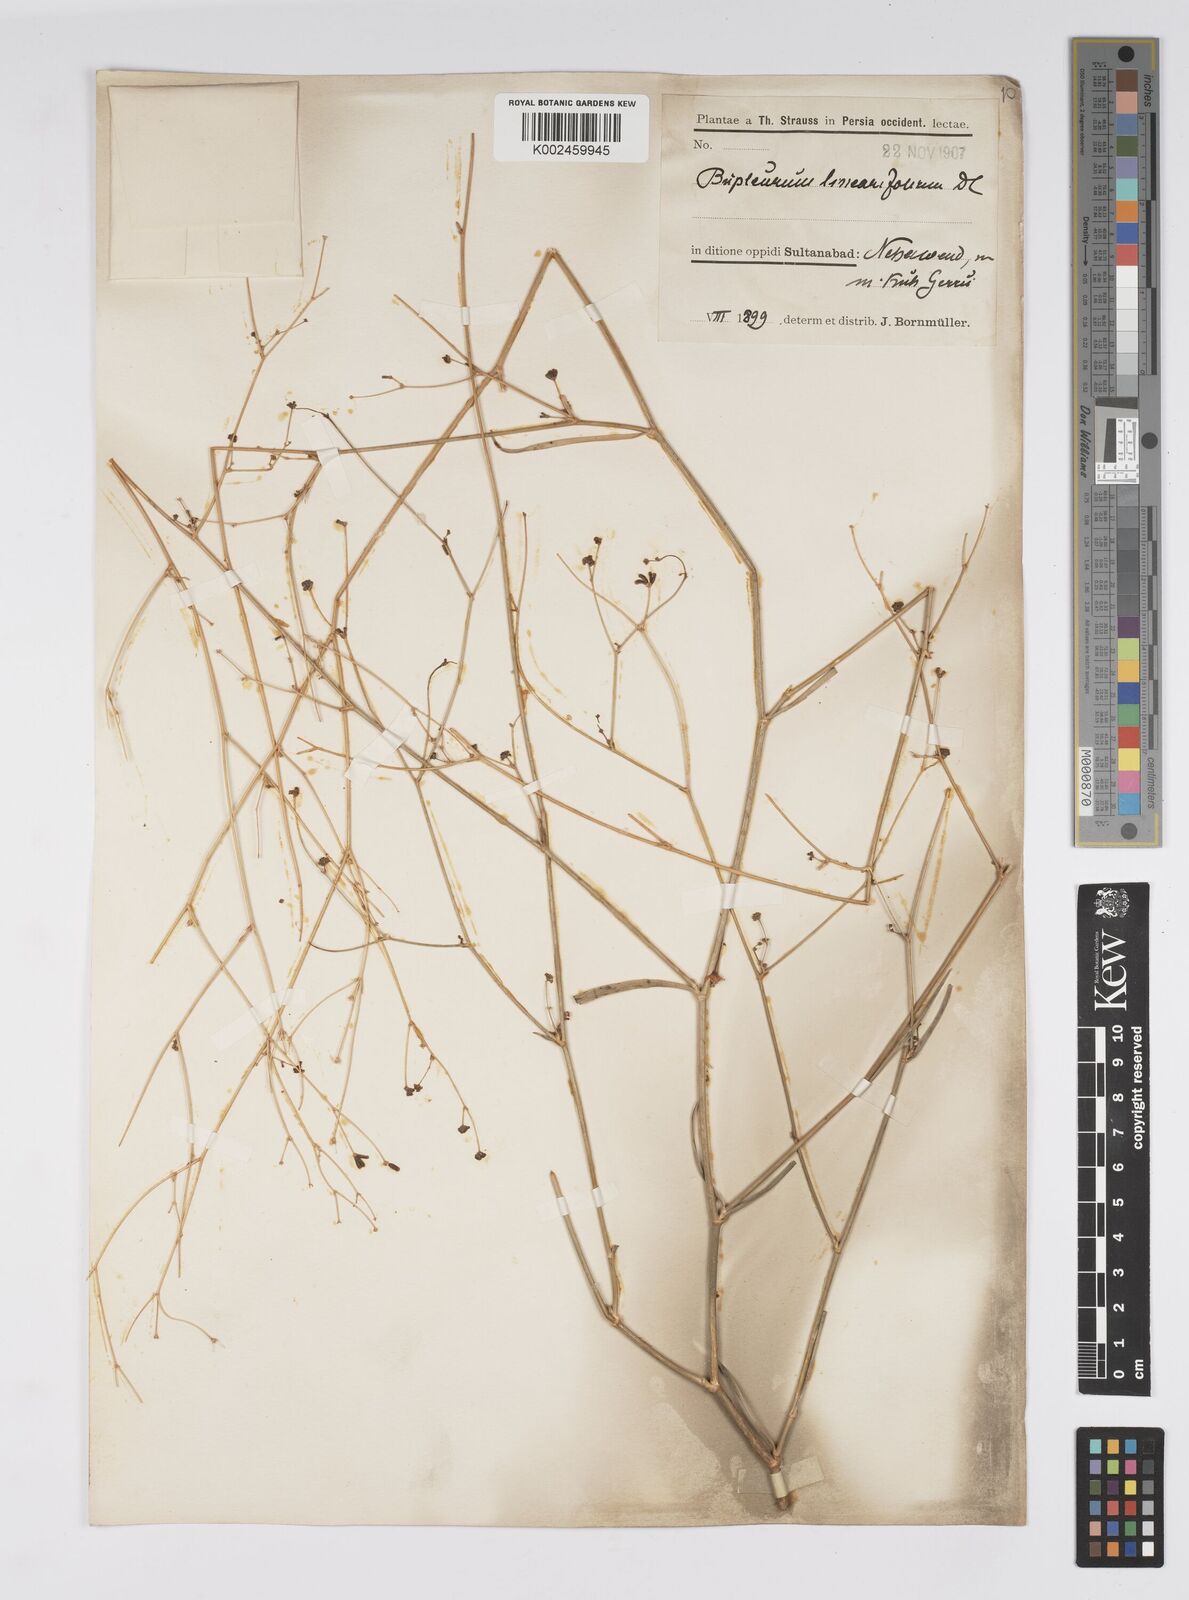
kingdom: Plantae
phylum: Tracheophyta
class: Magnoliopsida
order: Apiales
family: Apiaceae
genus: Bupleurum
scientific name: Bupleurum falcatum
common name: Sickle-leaved hare's-ear
